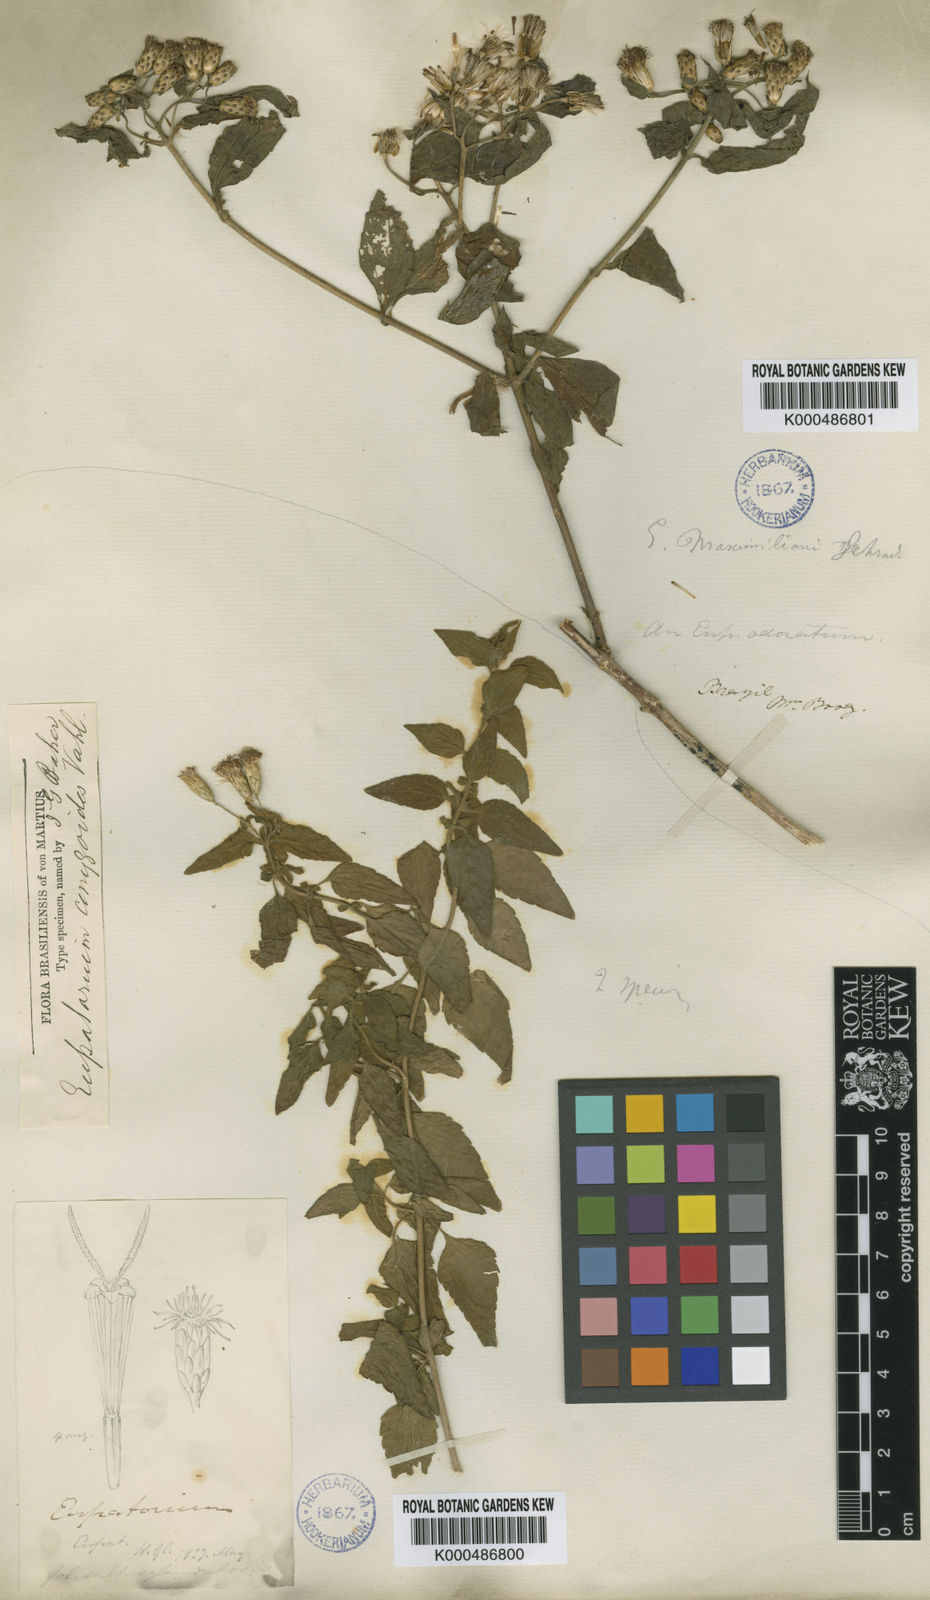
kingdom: Plantae
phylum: Tracheophyta
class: Magnoliopsida
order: Asterales
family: Asteraceae
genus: Chromolaena
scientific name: Chromolaena maximiliani
